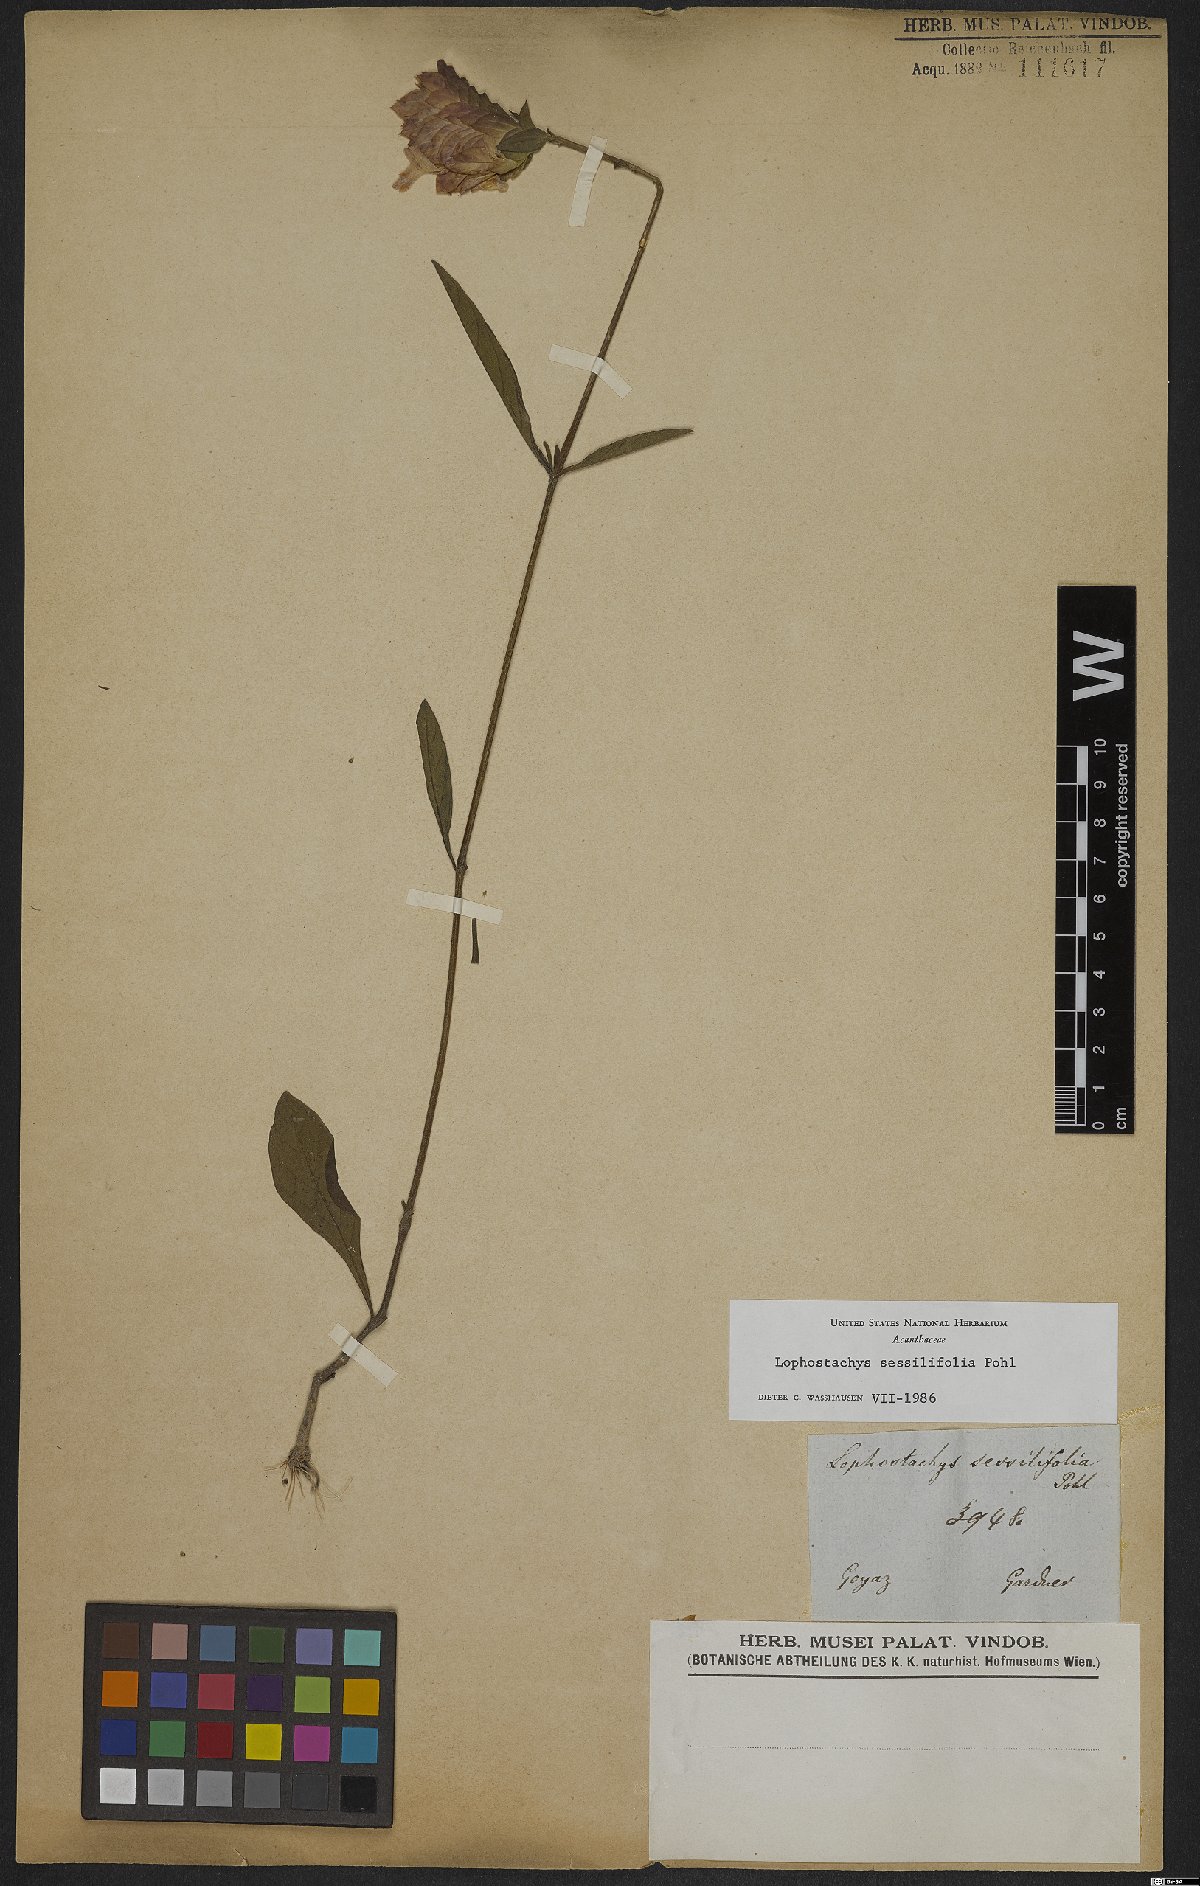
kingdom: Plantae
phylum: Tracheophyta
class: Magnoliopsida
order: Lamiales
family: Acanthaceae
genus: Lepidagathis
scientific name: Lepidagathis sessilifolia
